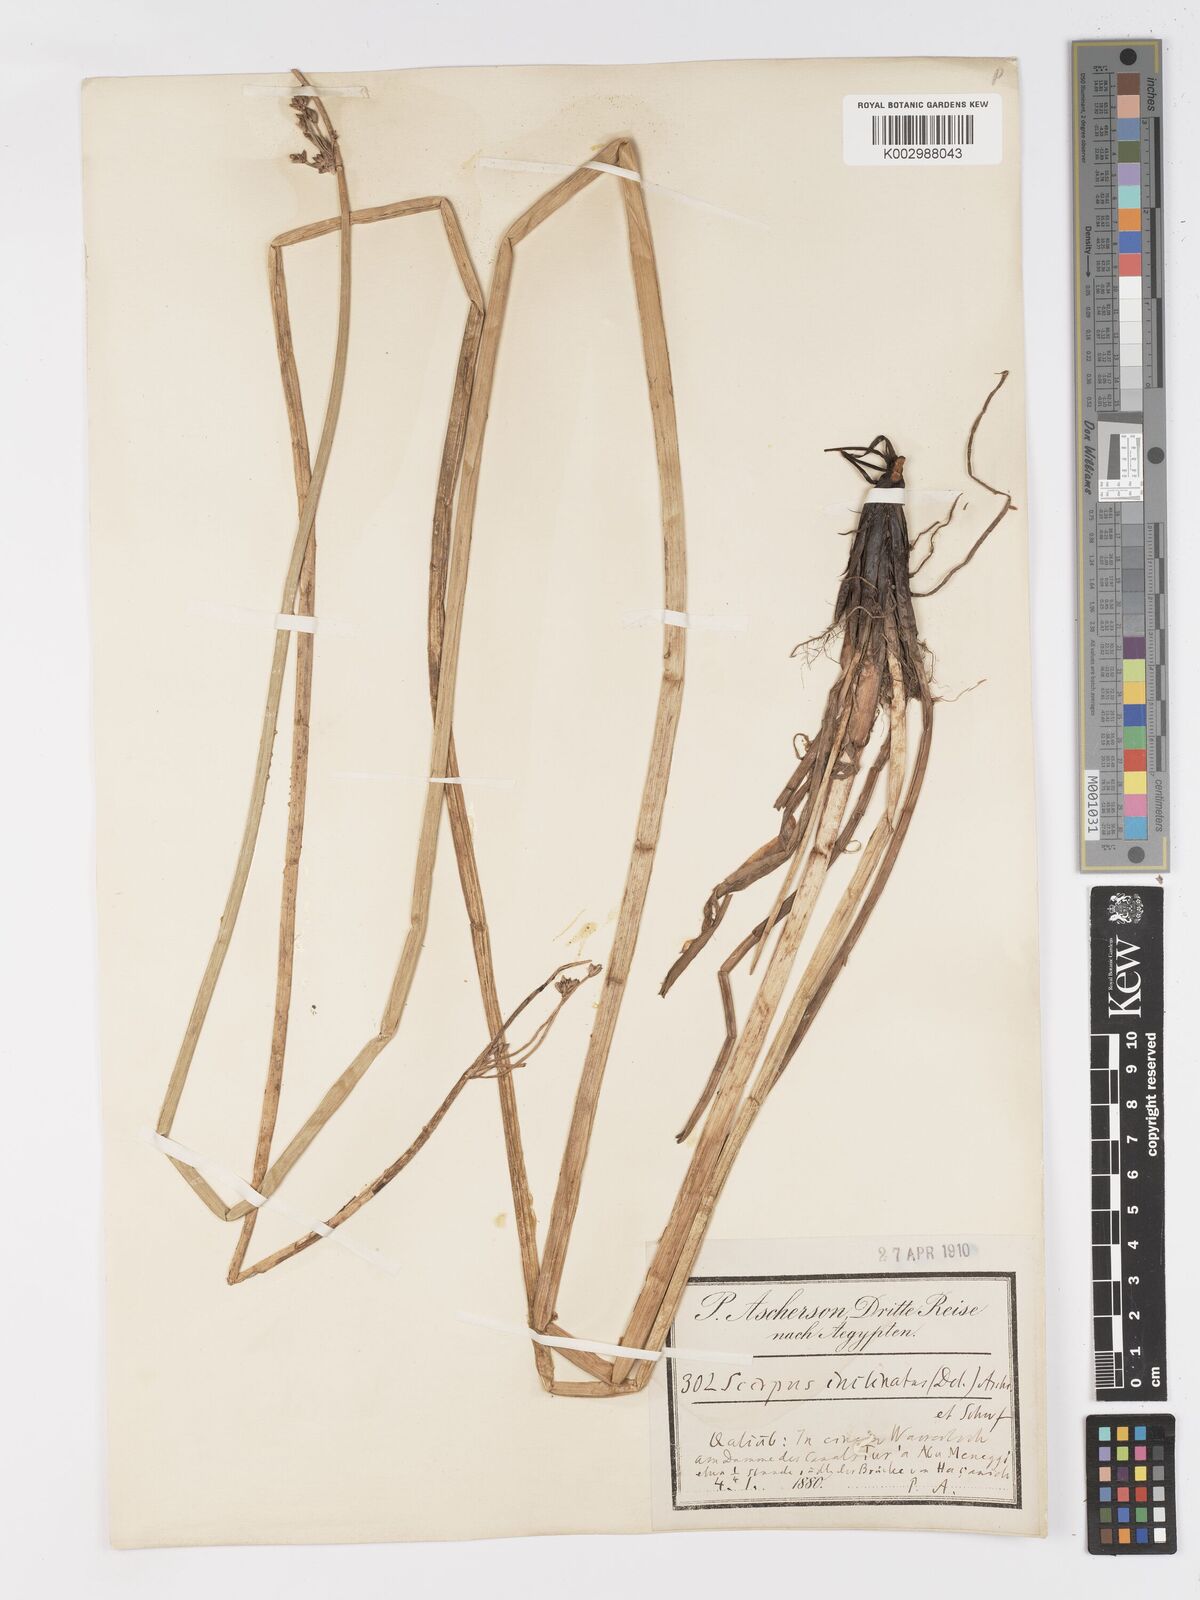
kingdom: Plantae
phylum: Tracheophyta
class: Liliopsida
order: Poales
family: Cyperaceae
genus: Schoenoplectiella
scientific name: Schoenoplectiella corymbosa
